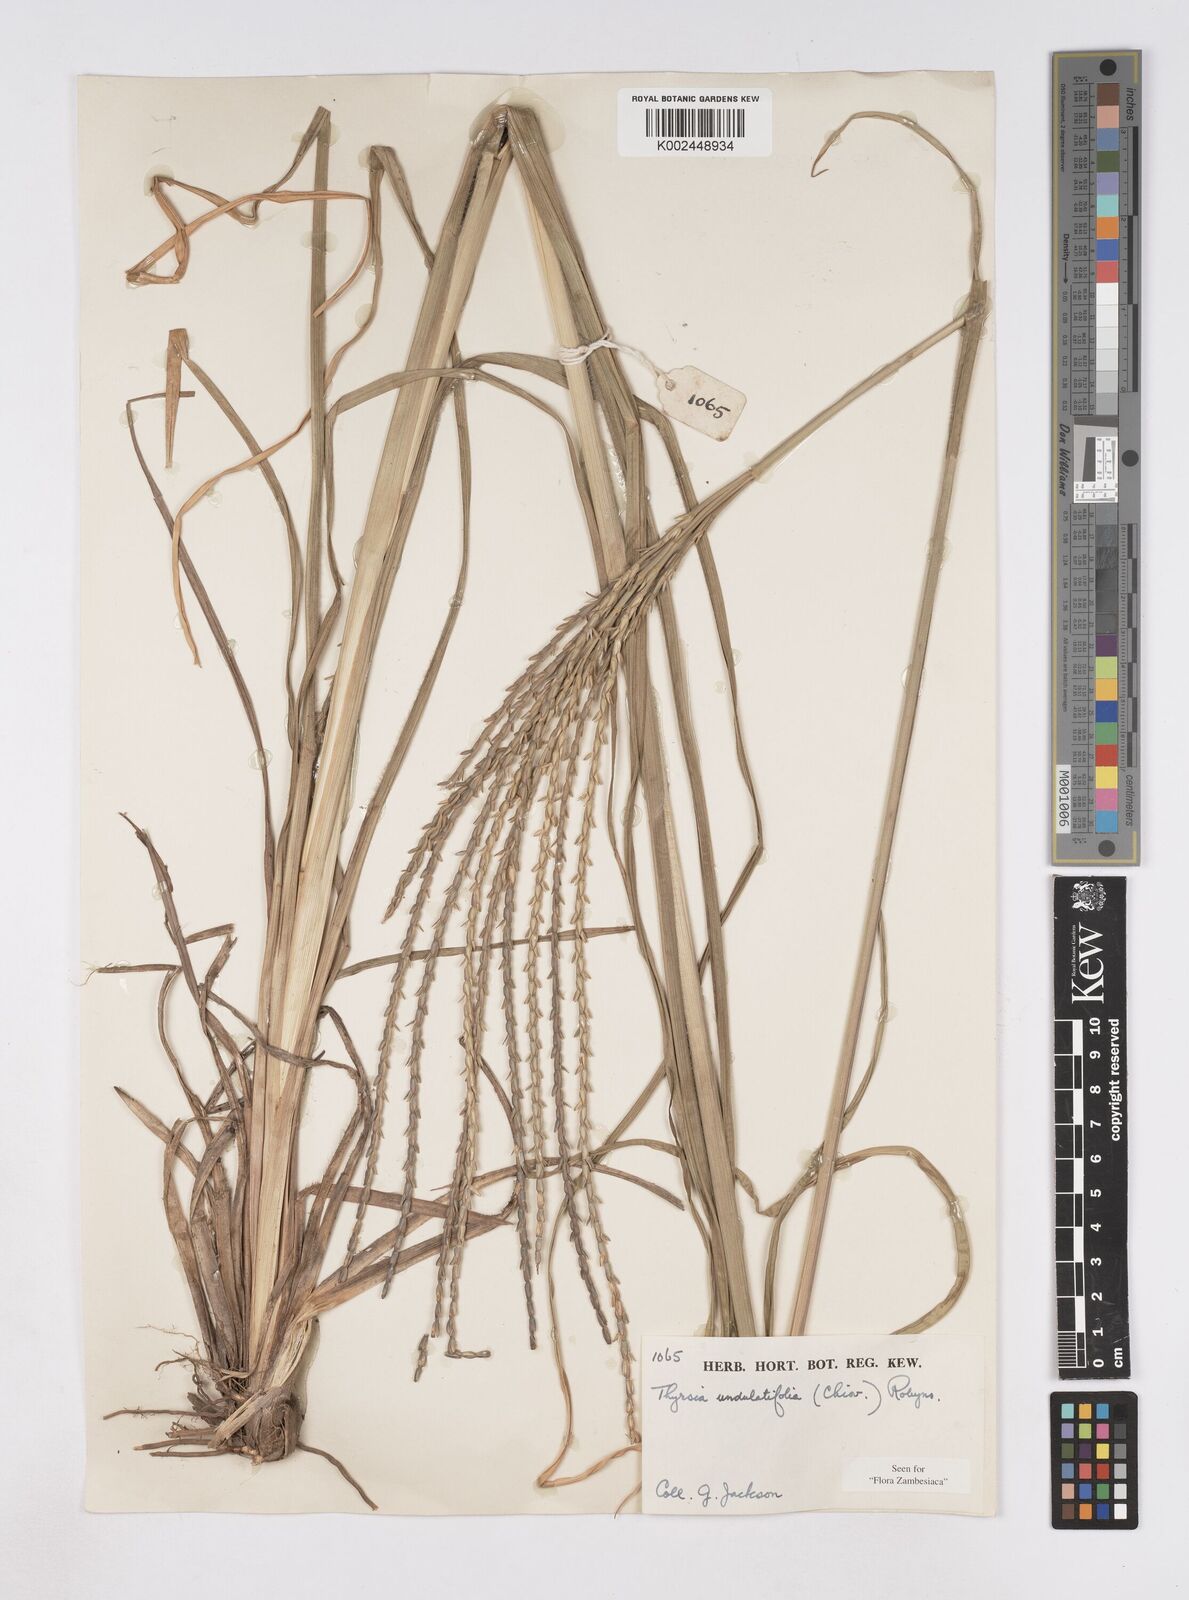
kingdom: Plantae
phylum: Tracheophyta
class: Liliopsida
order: Poales
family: Poaceae
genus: Thyrsia
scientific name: Thyrsia huillensis
